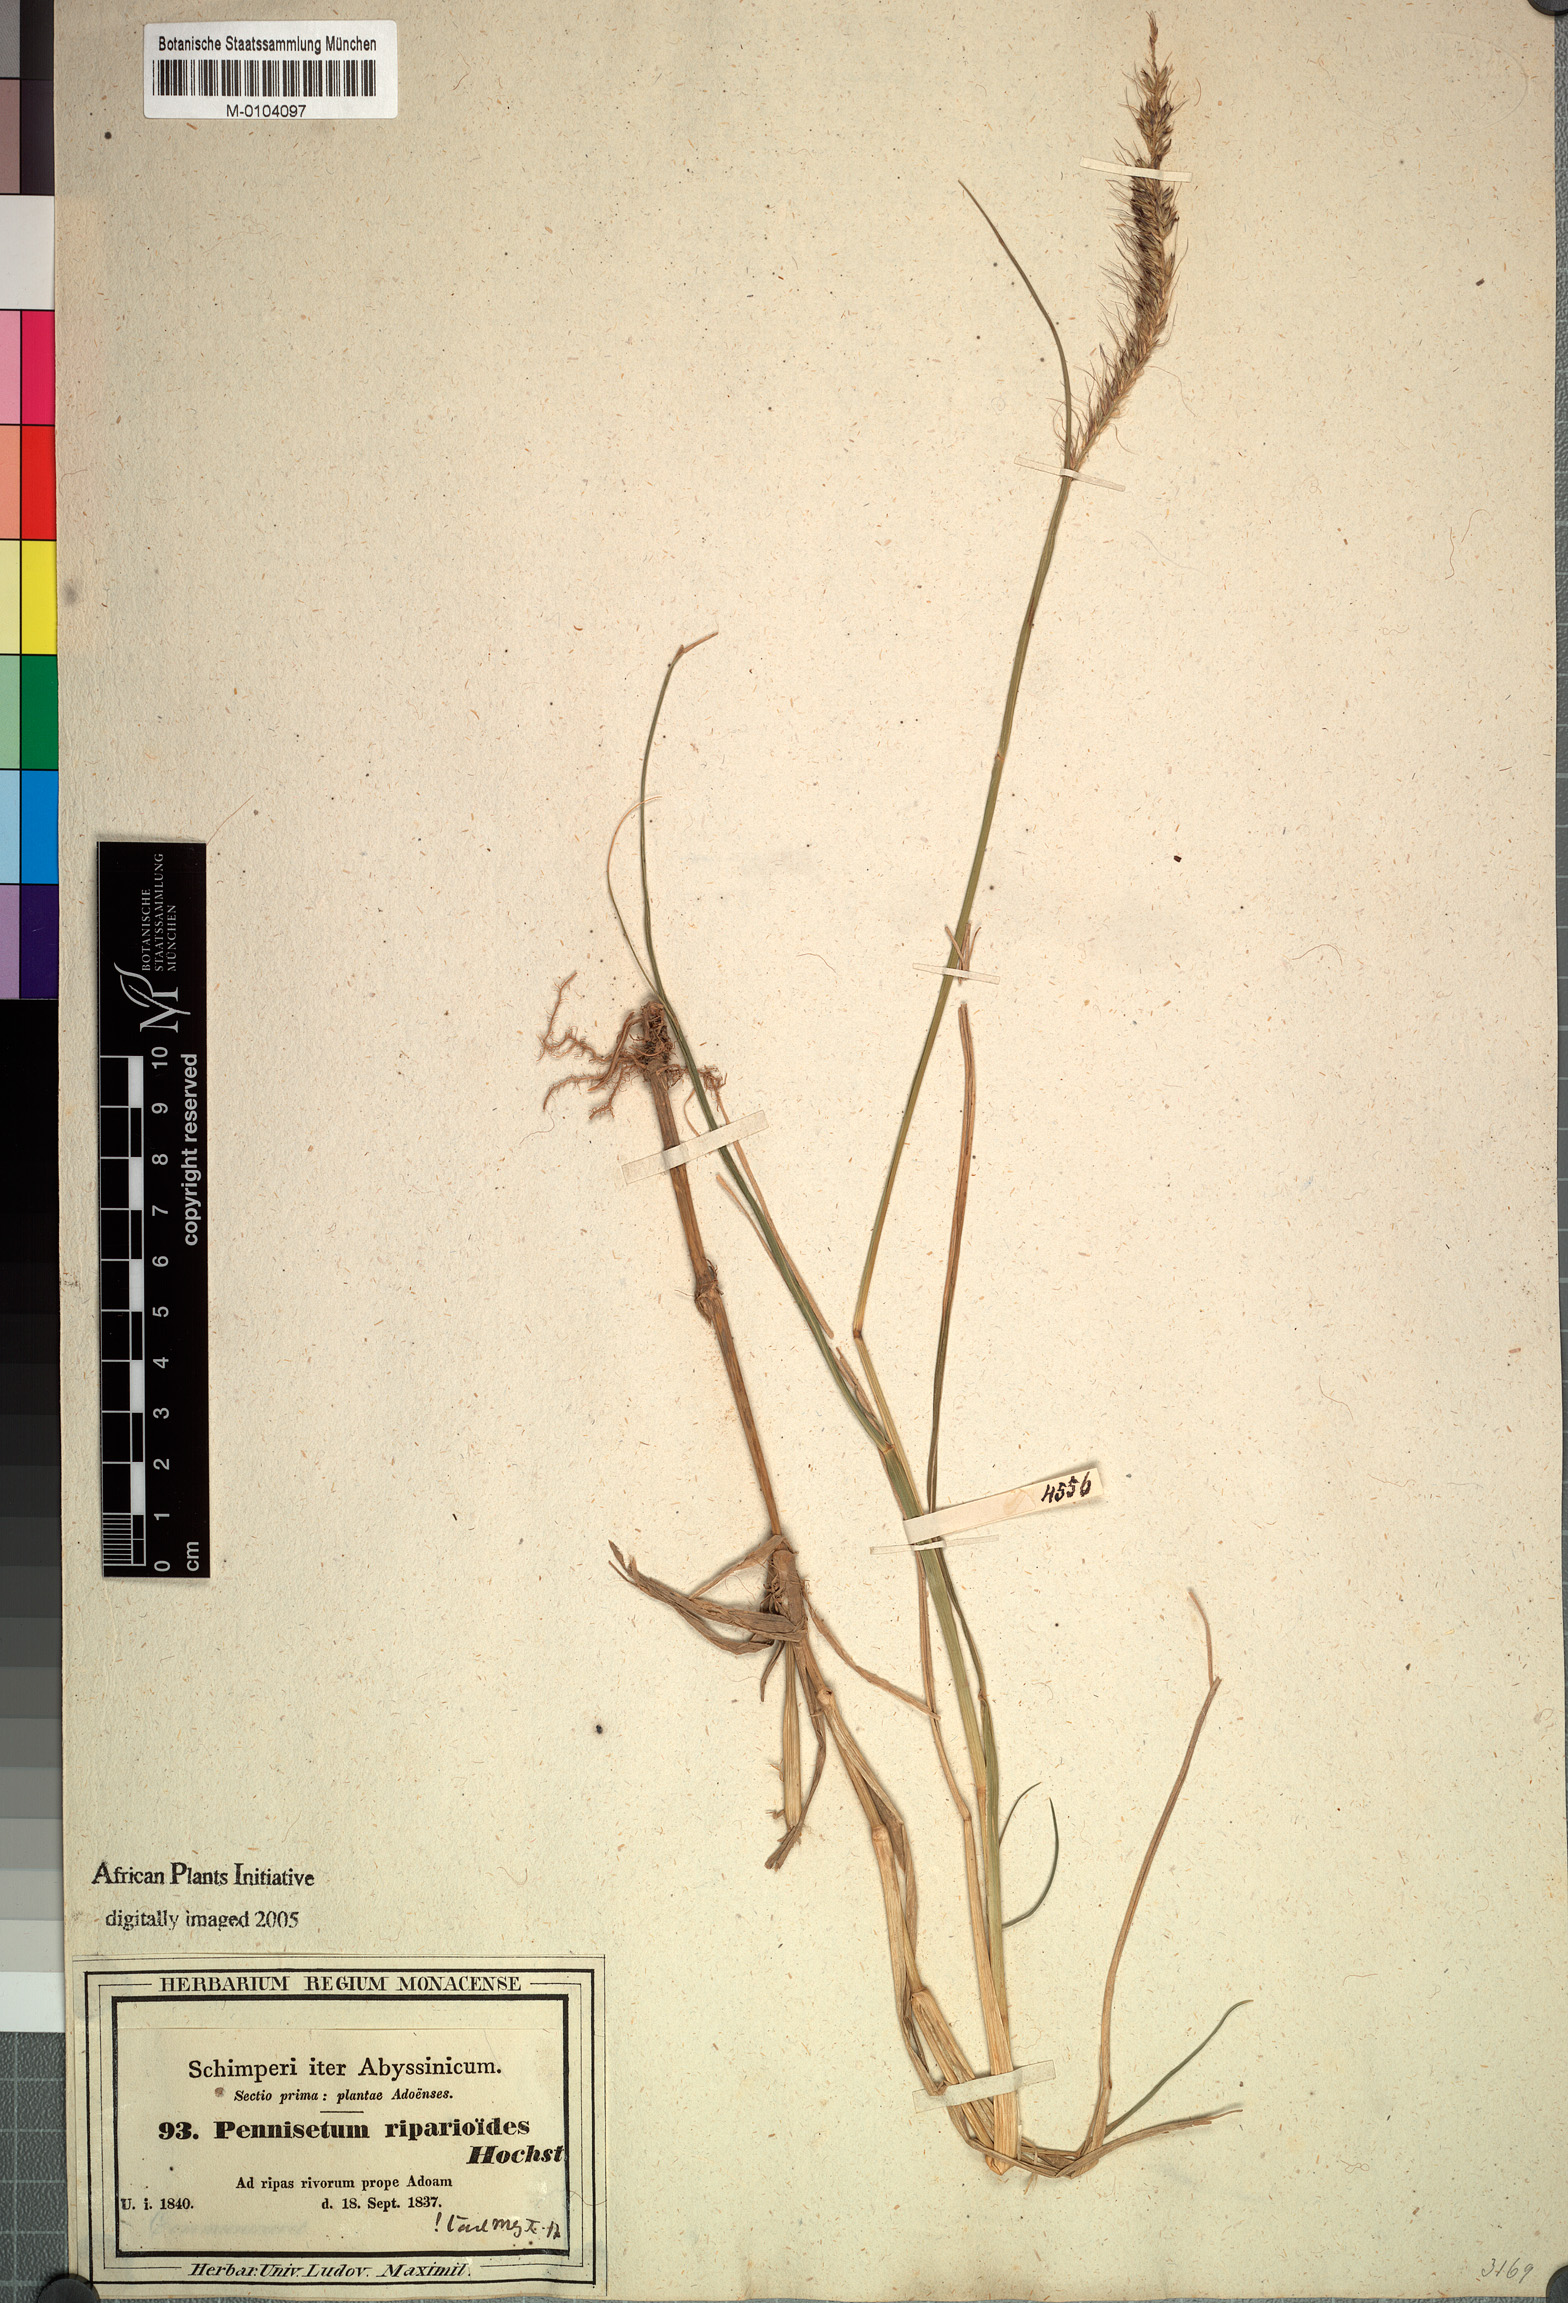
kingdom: Plantae
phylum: Tracheophyta
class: Liliopsida
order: Poales
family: Poaceae
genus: Cenchrus
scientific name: Cenchrus caudatus
